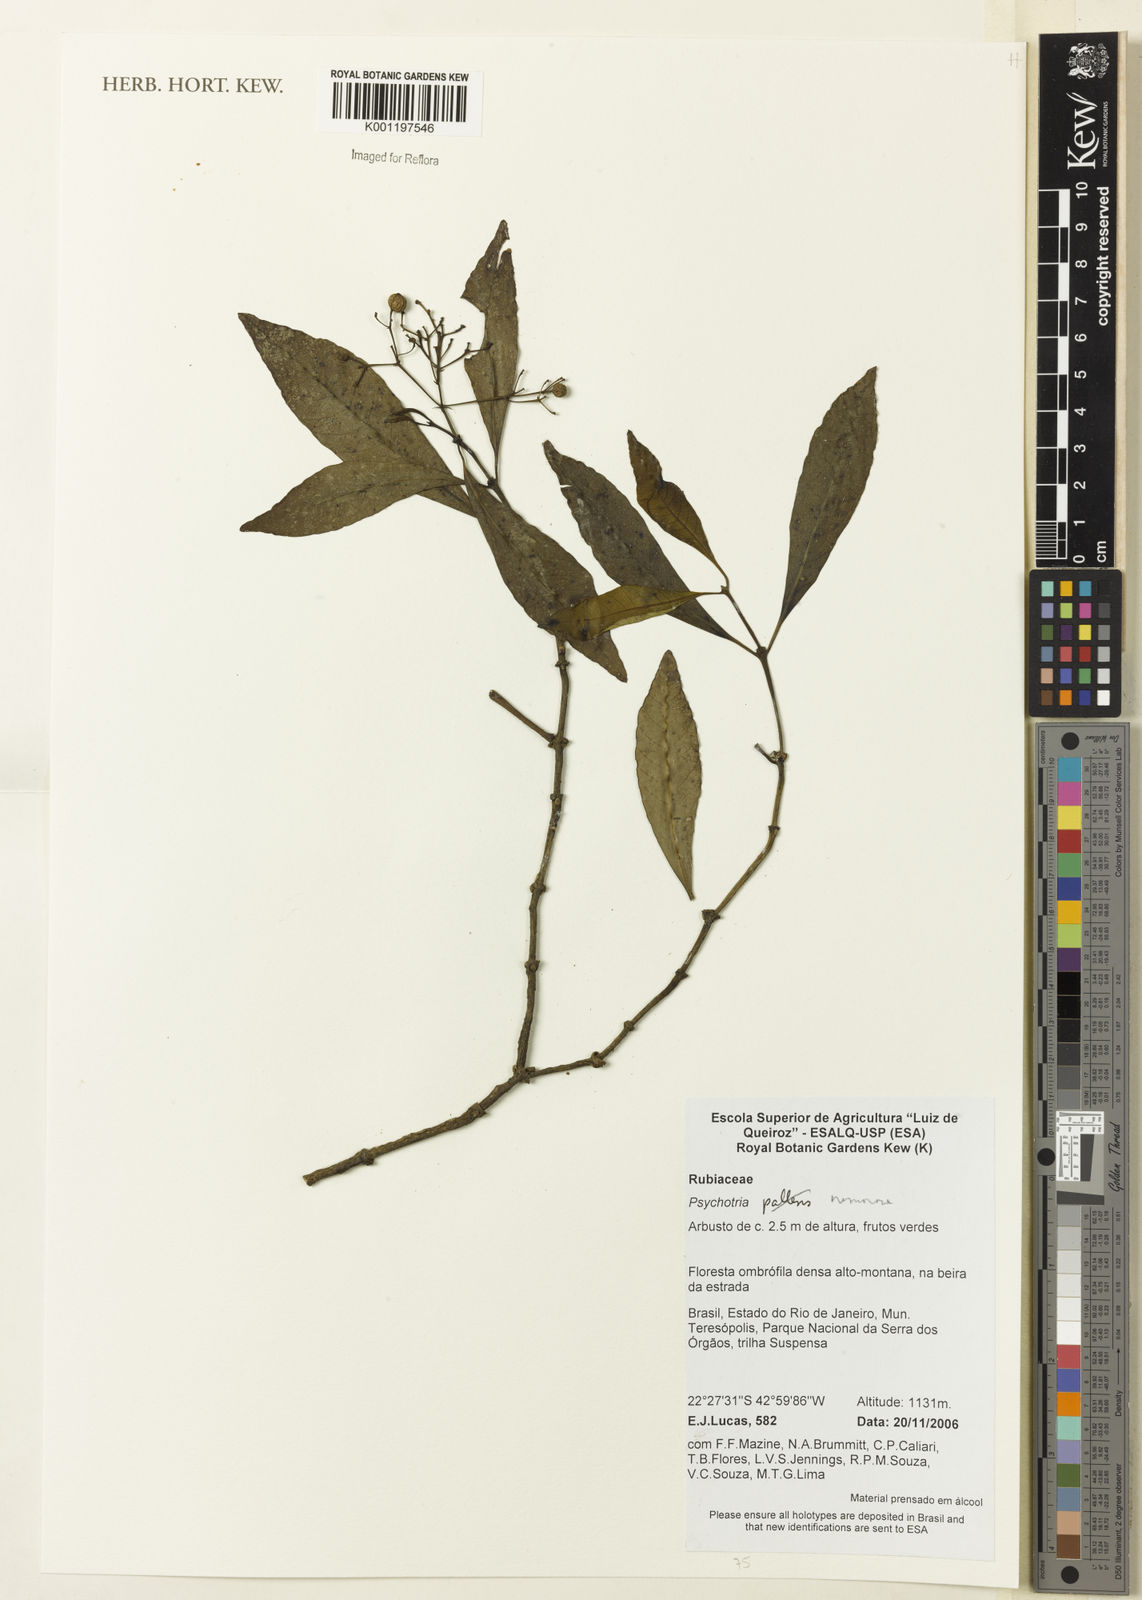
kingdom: Plantae
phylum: Tracheophyta
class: Magnoliopsida
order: Gentianales
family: Rubiaceae
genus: Psychotria
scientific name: Psychotria nemorosa
